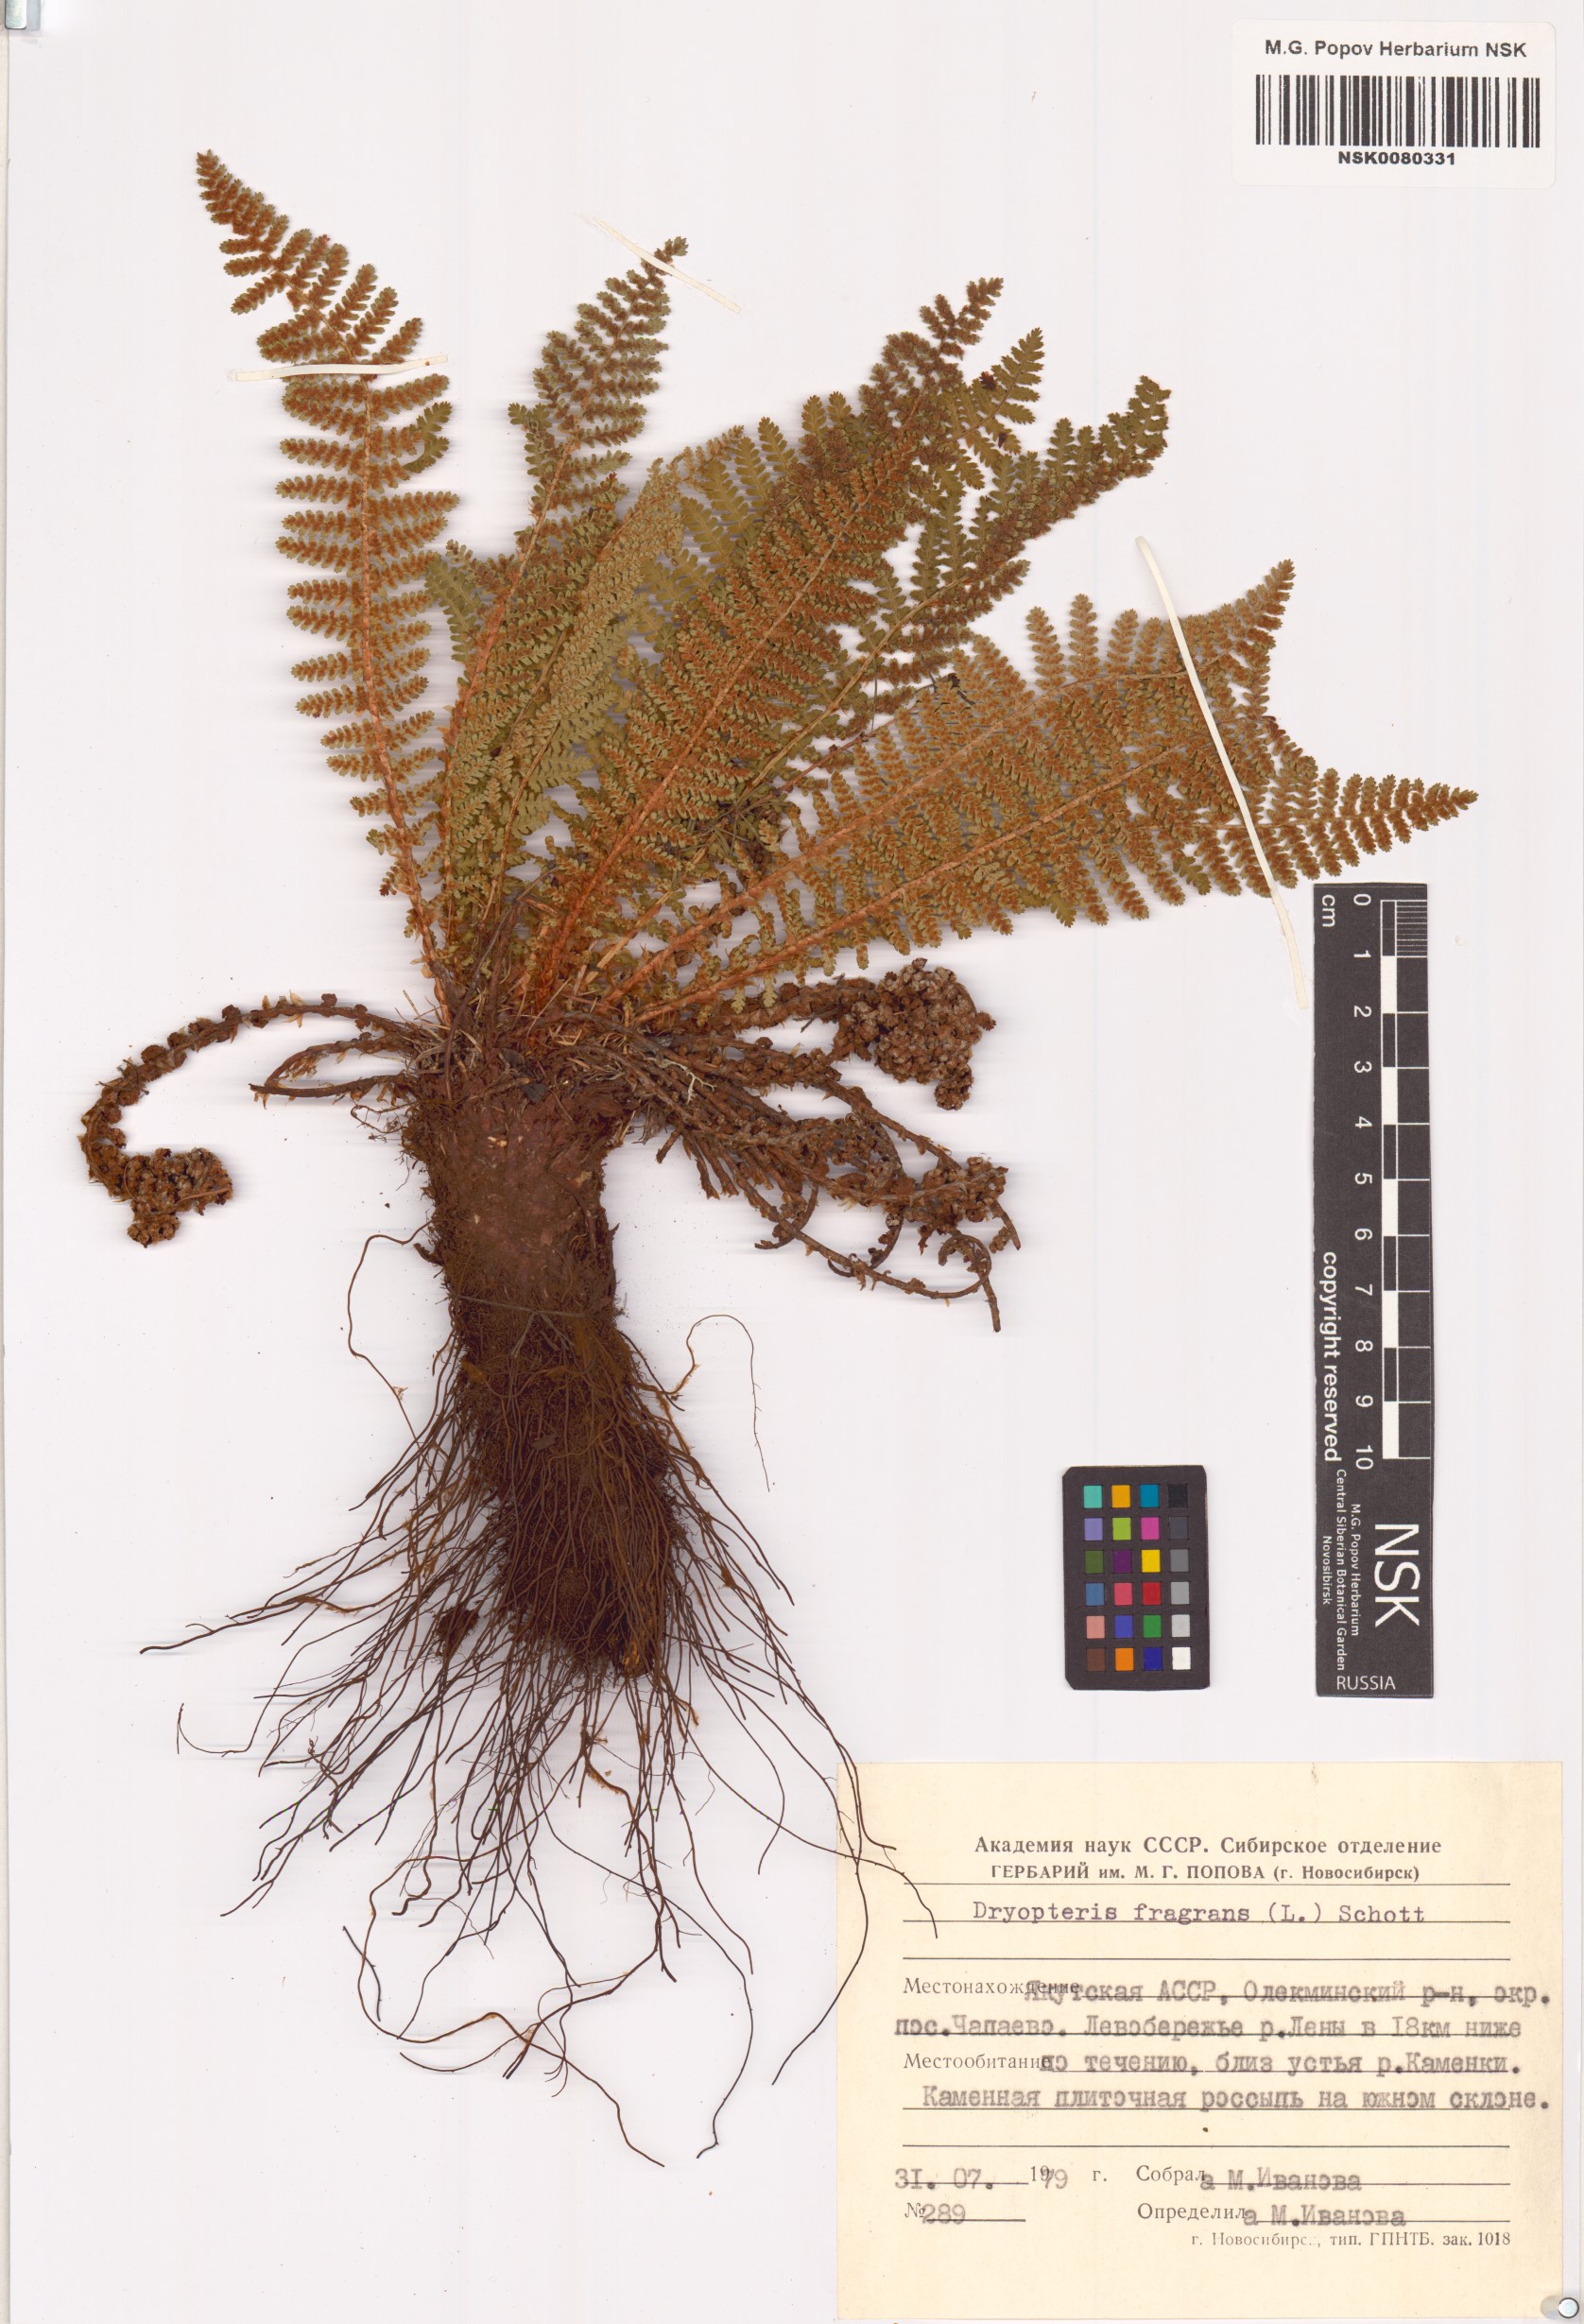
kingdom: Plantae
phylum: Tracheophyta
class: Polypodiopsida
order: Polypodiales
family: Dryopteridaceae
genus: Dryopteris
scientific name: Dryopteris fragrans
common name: Fragrant wood fern
